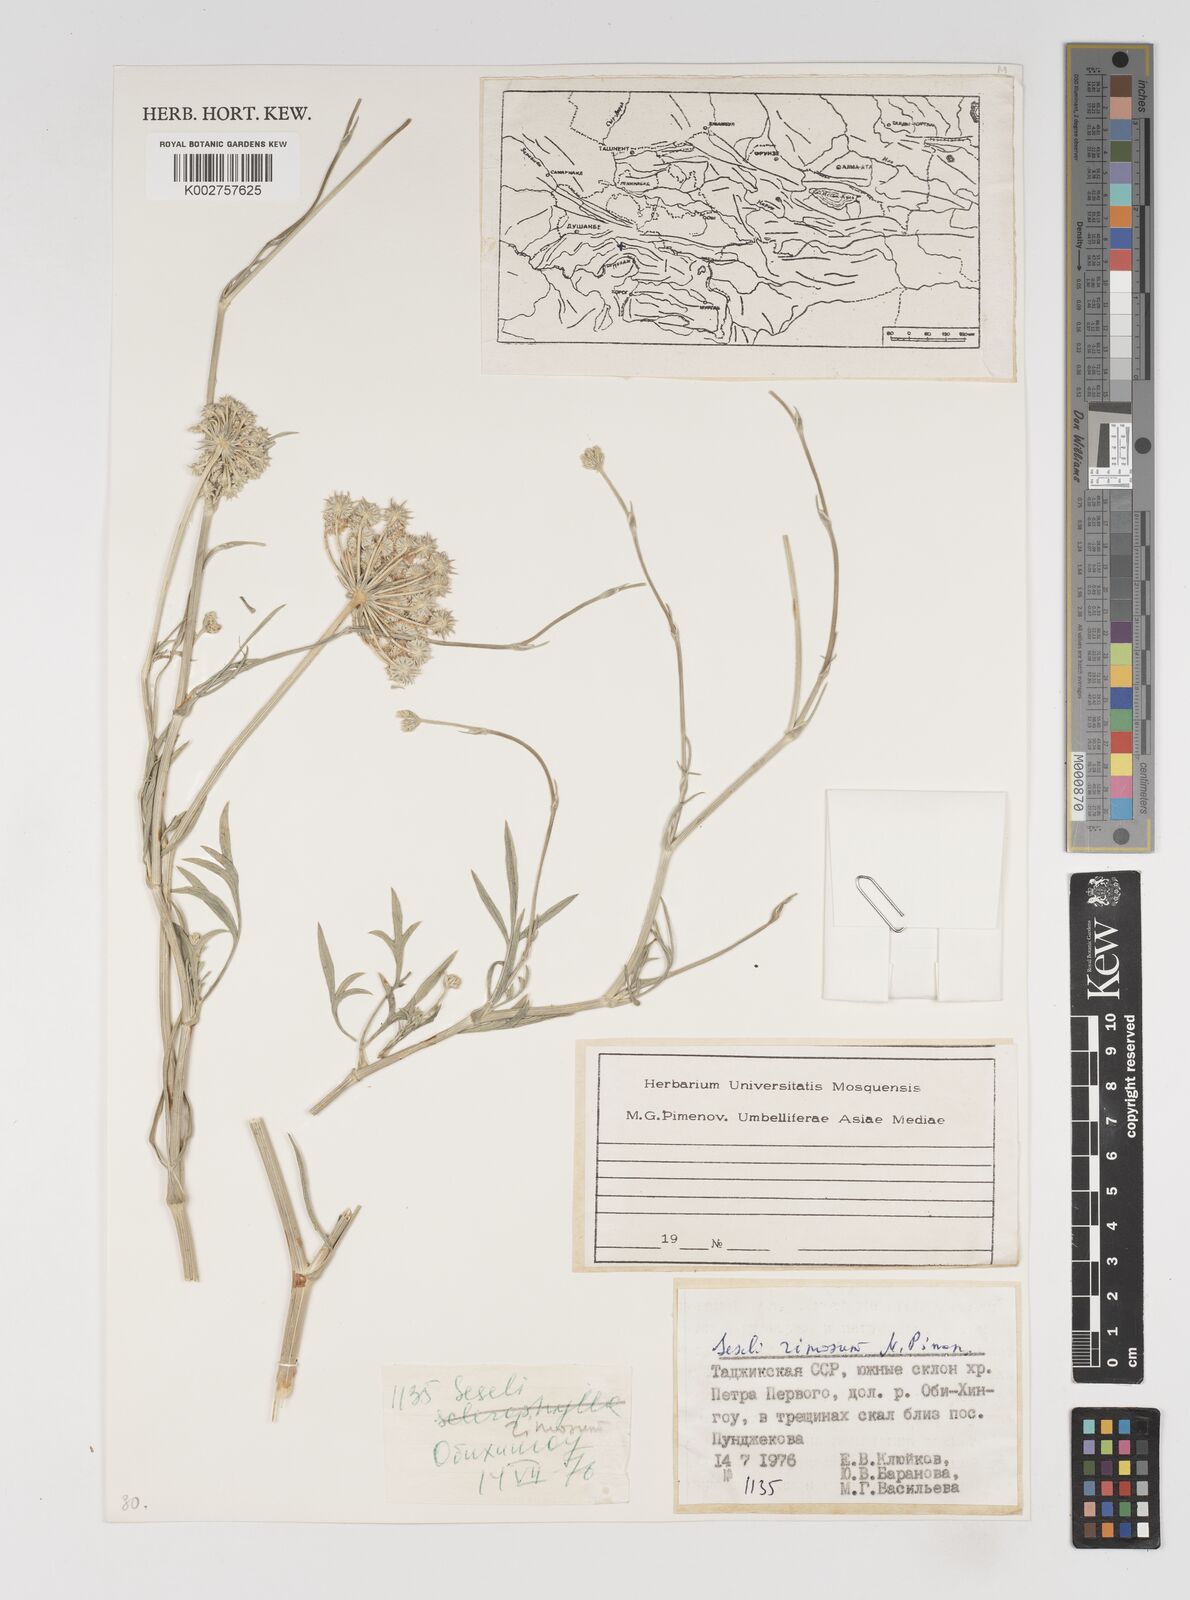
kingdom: Plantae
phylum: Tracheophyta
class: Magnoliopsida
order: Apiales
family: Apiaceae
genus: Seseli
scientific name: Seseli rimosum
